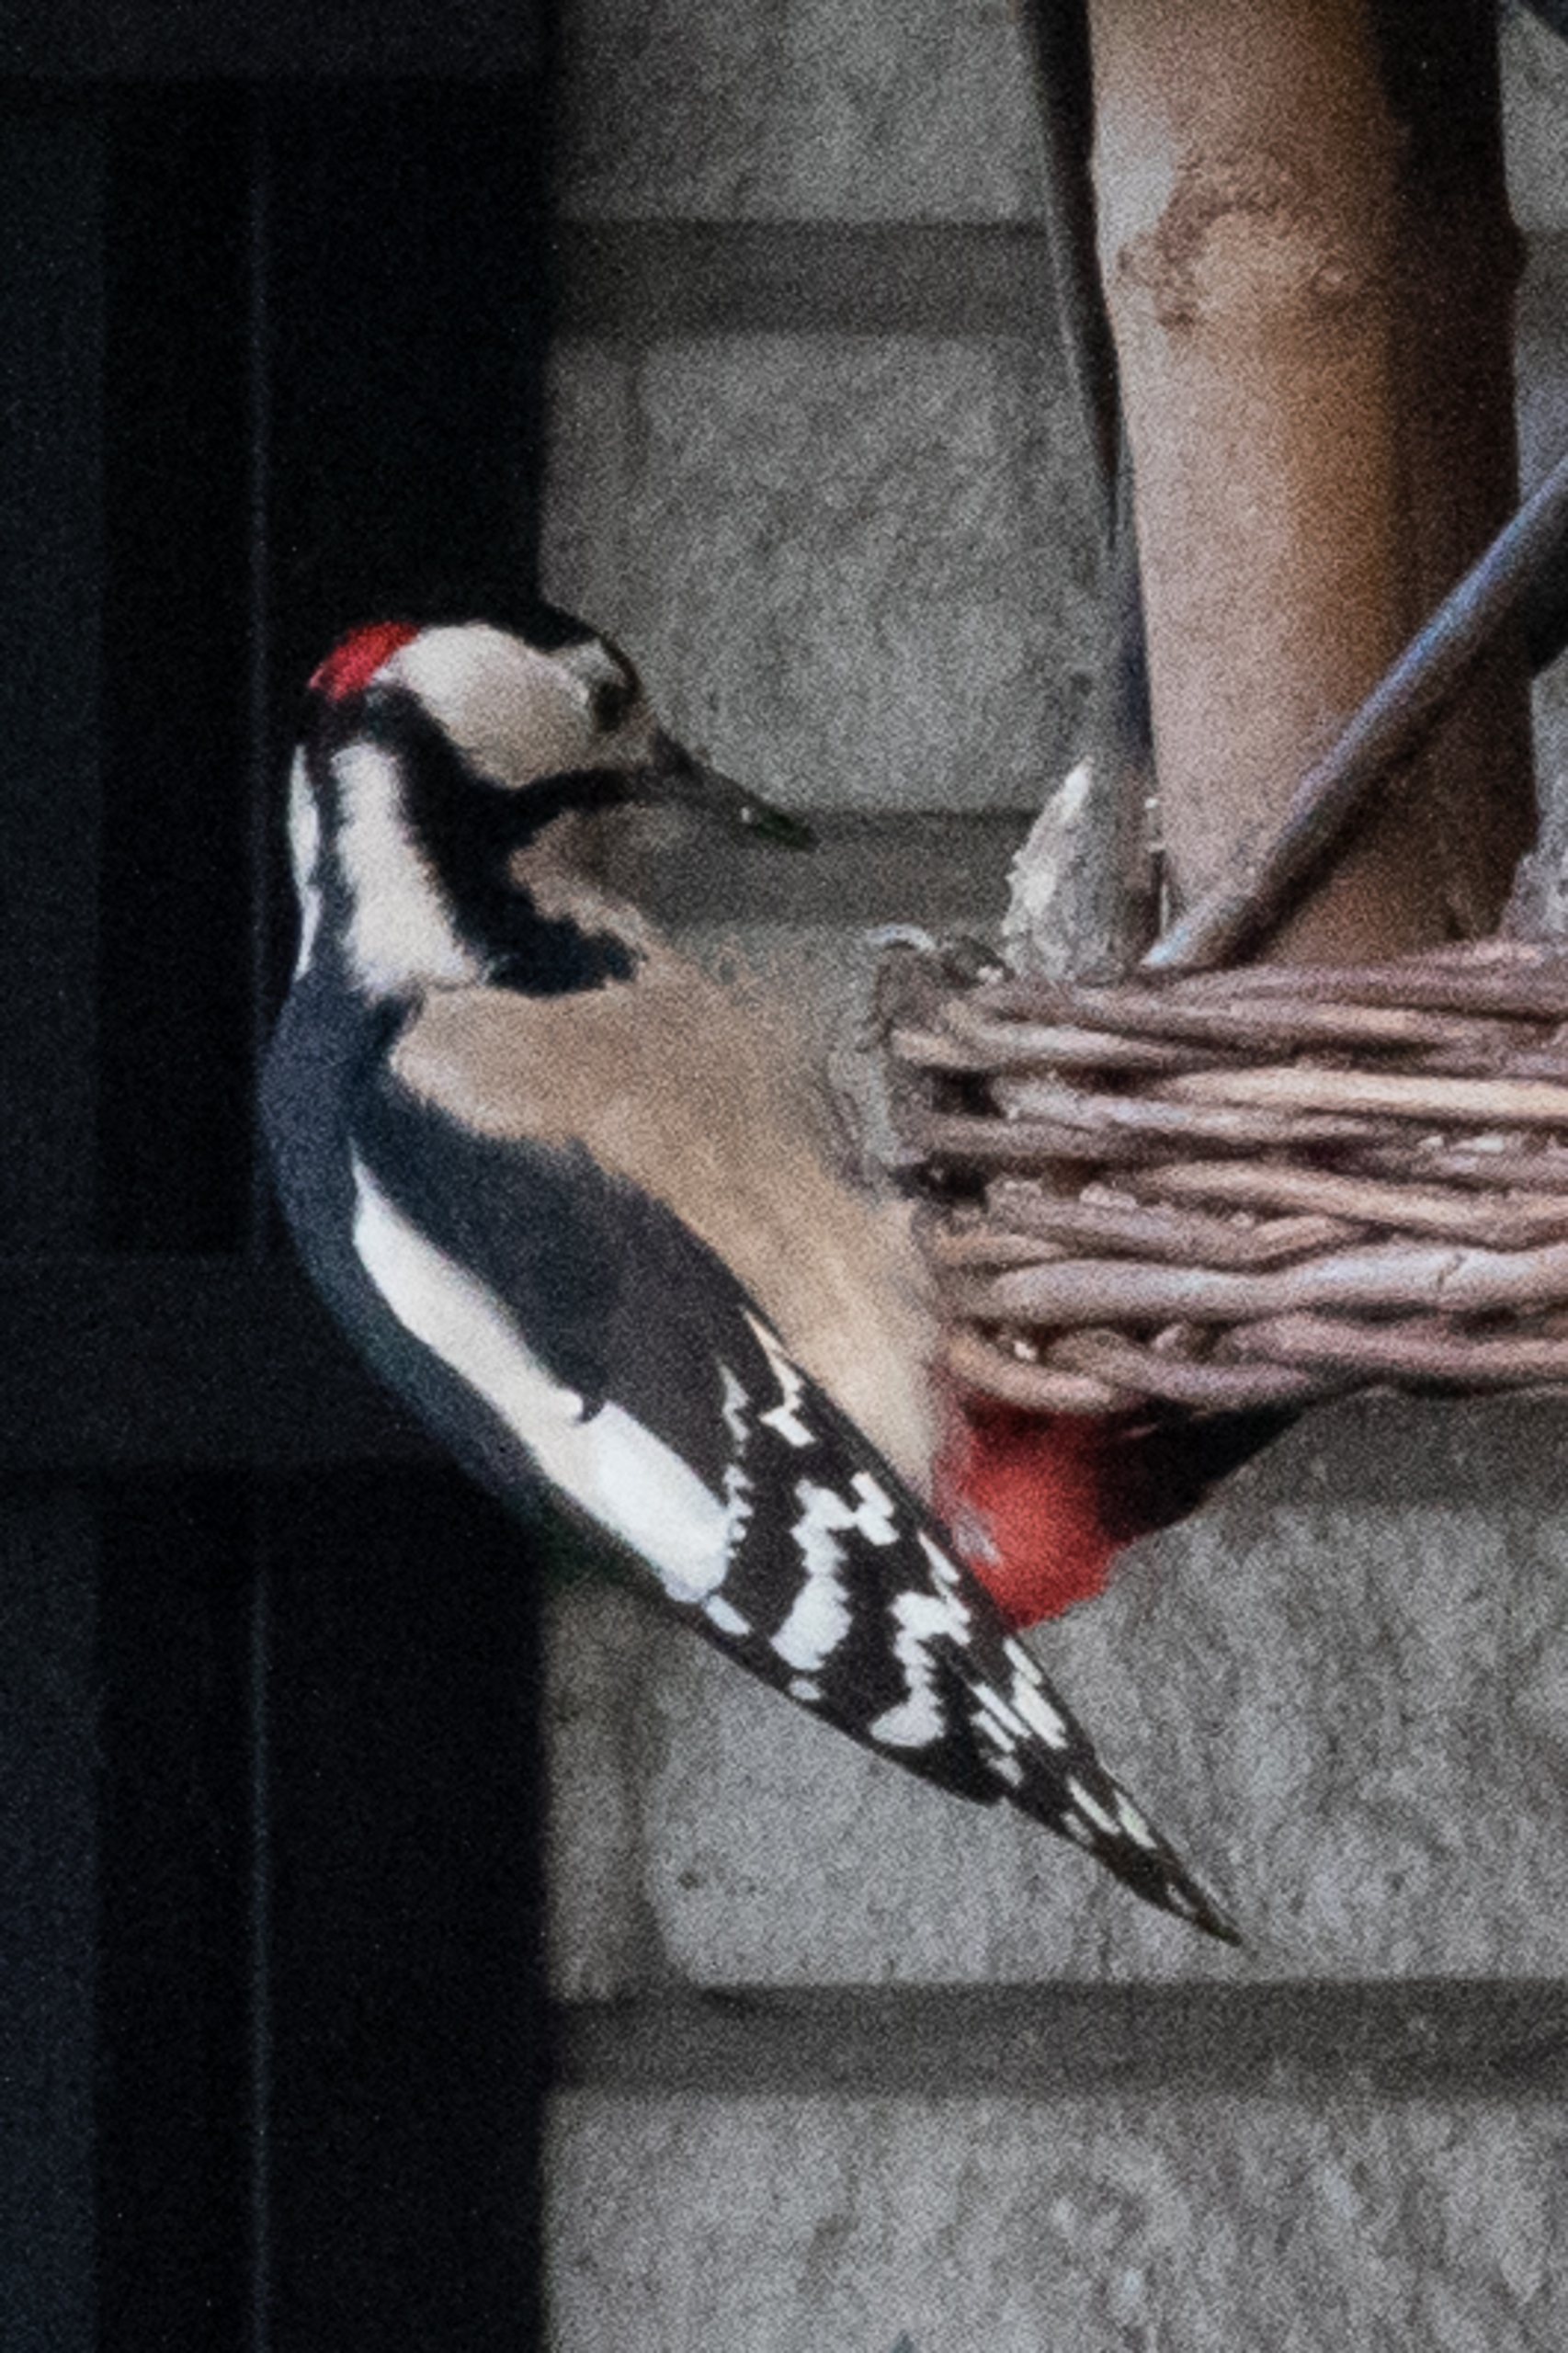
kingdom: Animalia
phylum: Chordata
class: Aves
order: Piciformes
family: Picidae
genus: Dendrocopos
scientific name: Dendrocopos major
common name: Stor flagspætte
